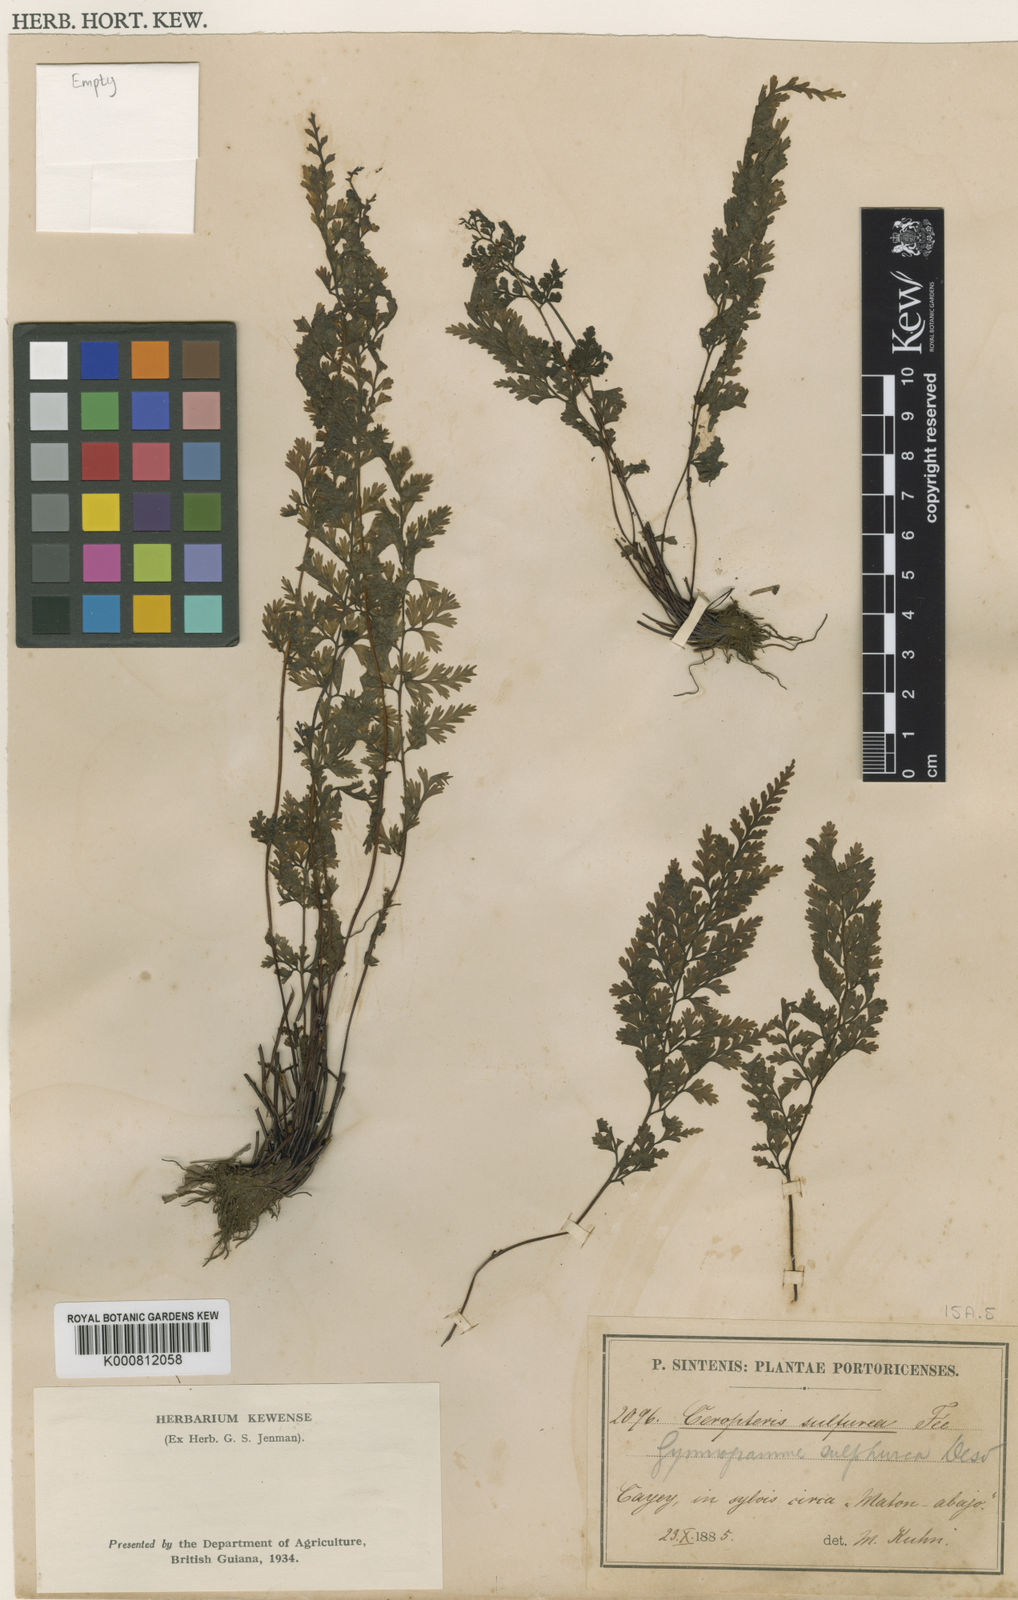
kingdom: Plantae
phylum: Tracheophyta
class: Polypodiopsida
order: Polypodiales
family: Pteridaceae
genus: Gastoniella
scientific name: Gastoniella chaerophylla
